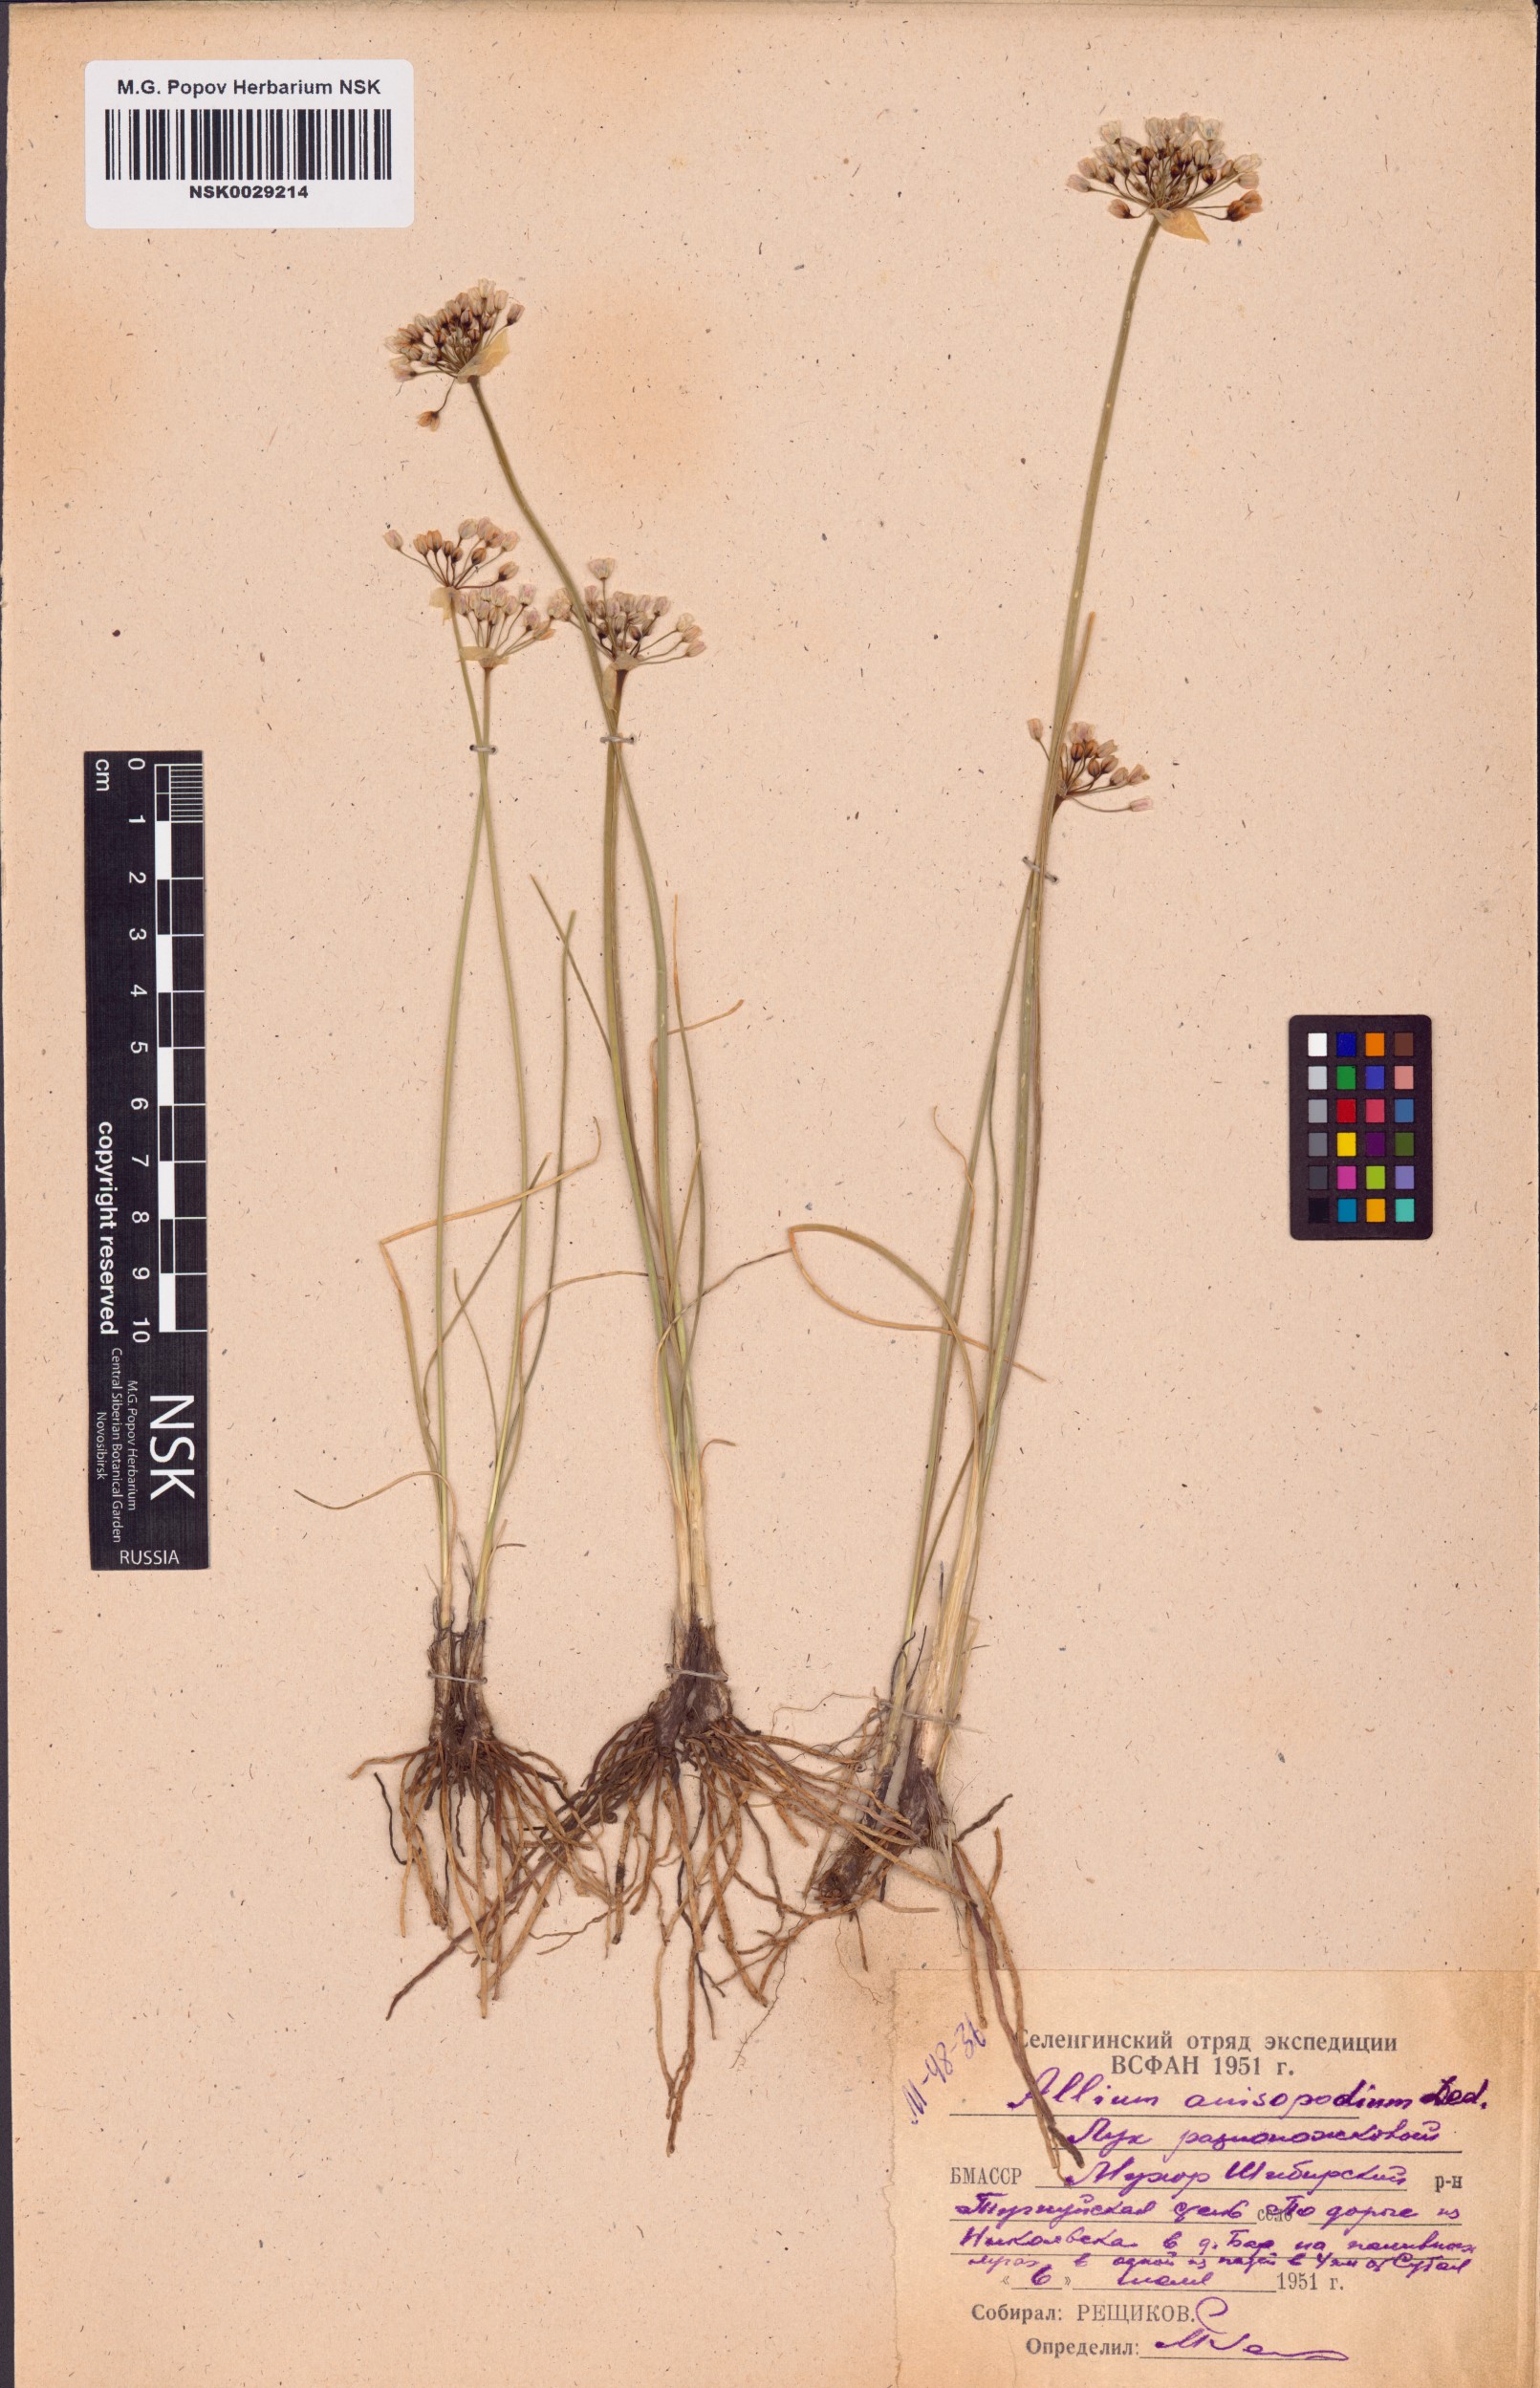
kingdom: Plantae
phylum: Tracheophyta
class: Liliopsida
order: Asparagales
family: Amaryllidaceae
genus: Allium
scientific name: Allium anisopodium
